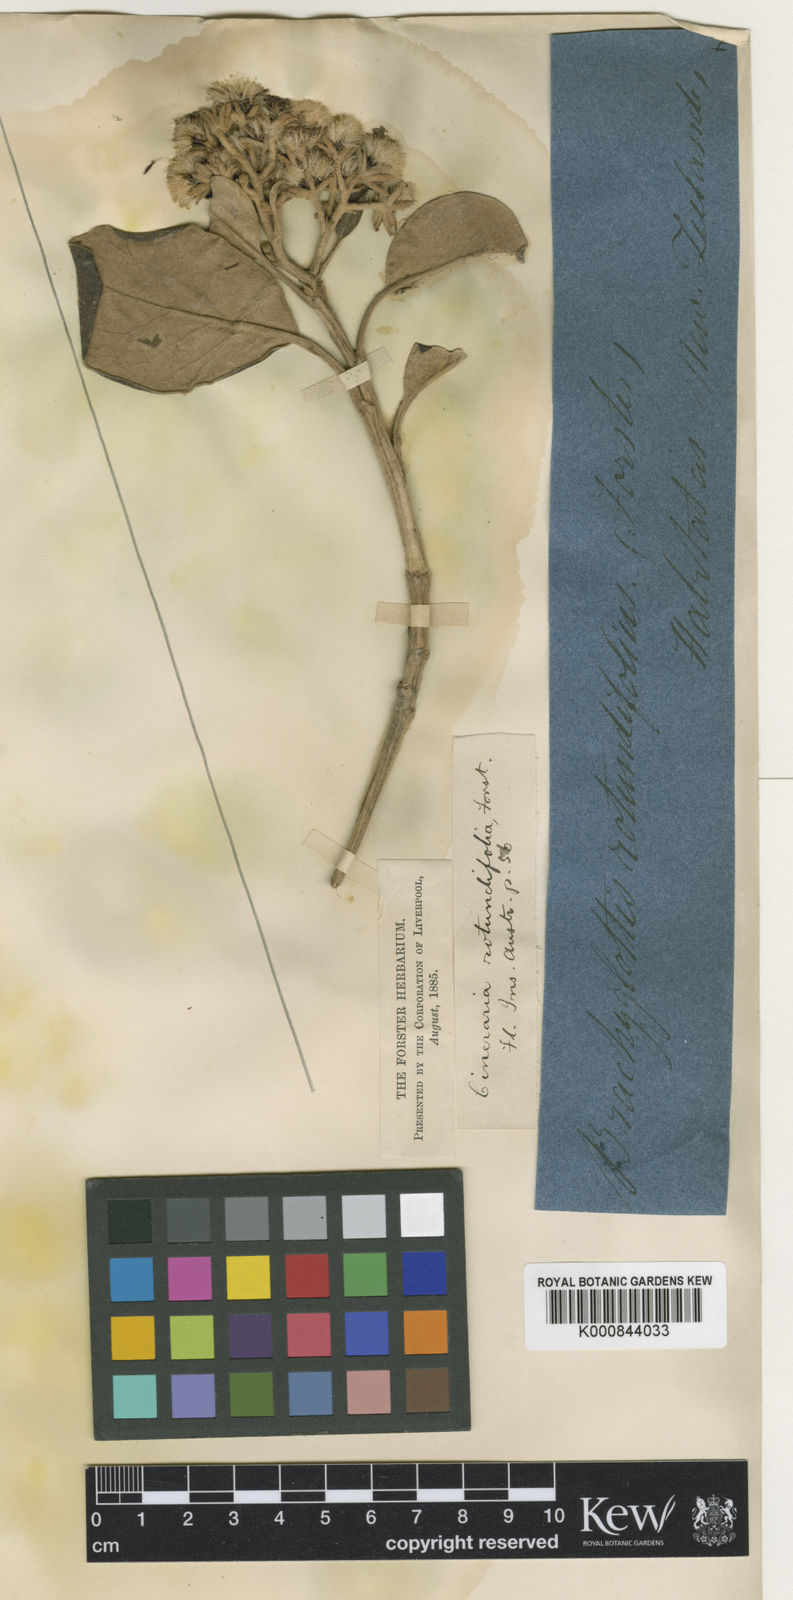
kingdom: Plantae
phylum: Tracheophyta
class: Magnoliopsida
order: Asterales
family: Asteraceae
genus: Brachyglottis
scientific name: Brachyglottis rotundifolia
